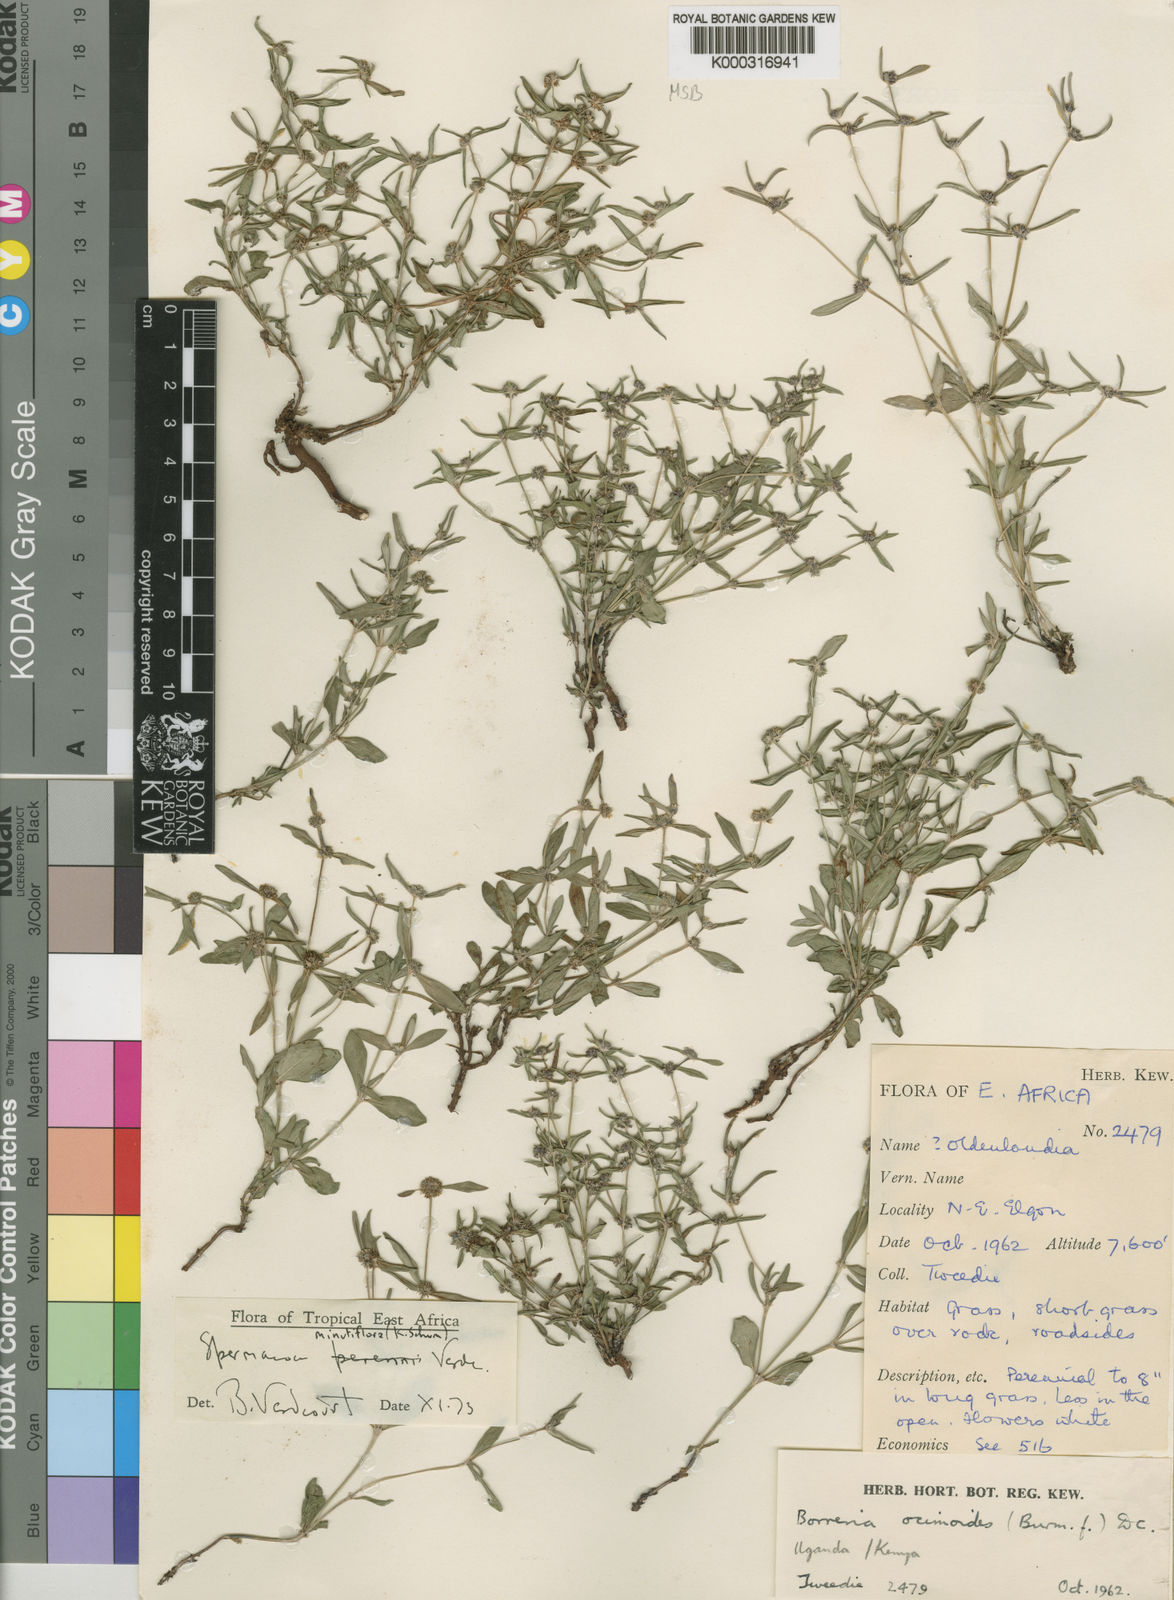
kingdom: Plantae
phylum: Tracheophyta
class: Magnoliopsida
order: Gentianales
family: Rubiaceae
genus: Spermacoce
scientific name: Spermacoce minutiflora
